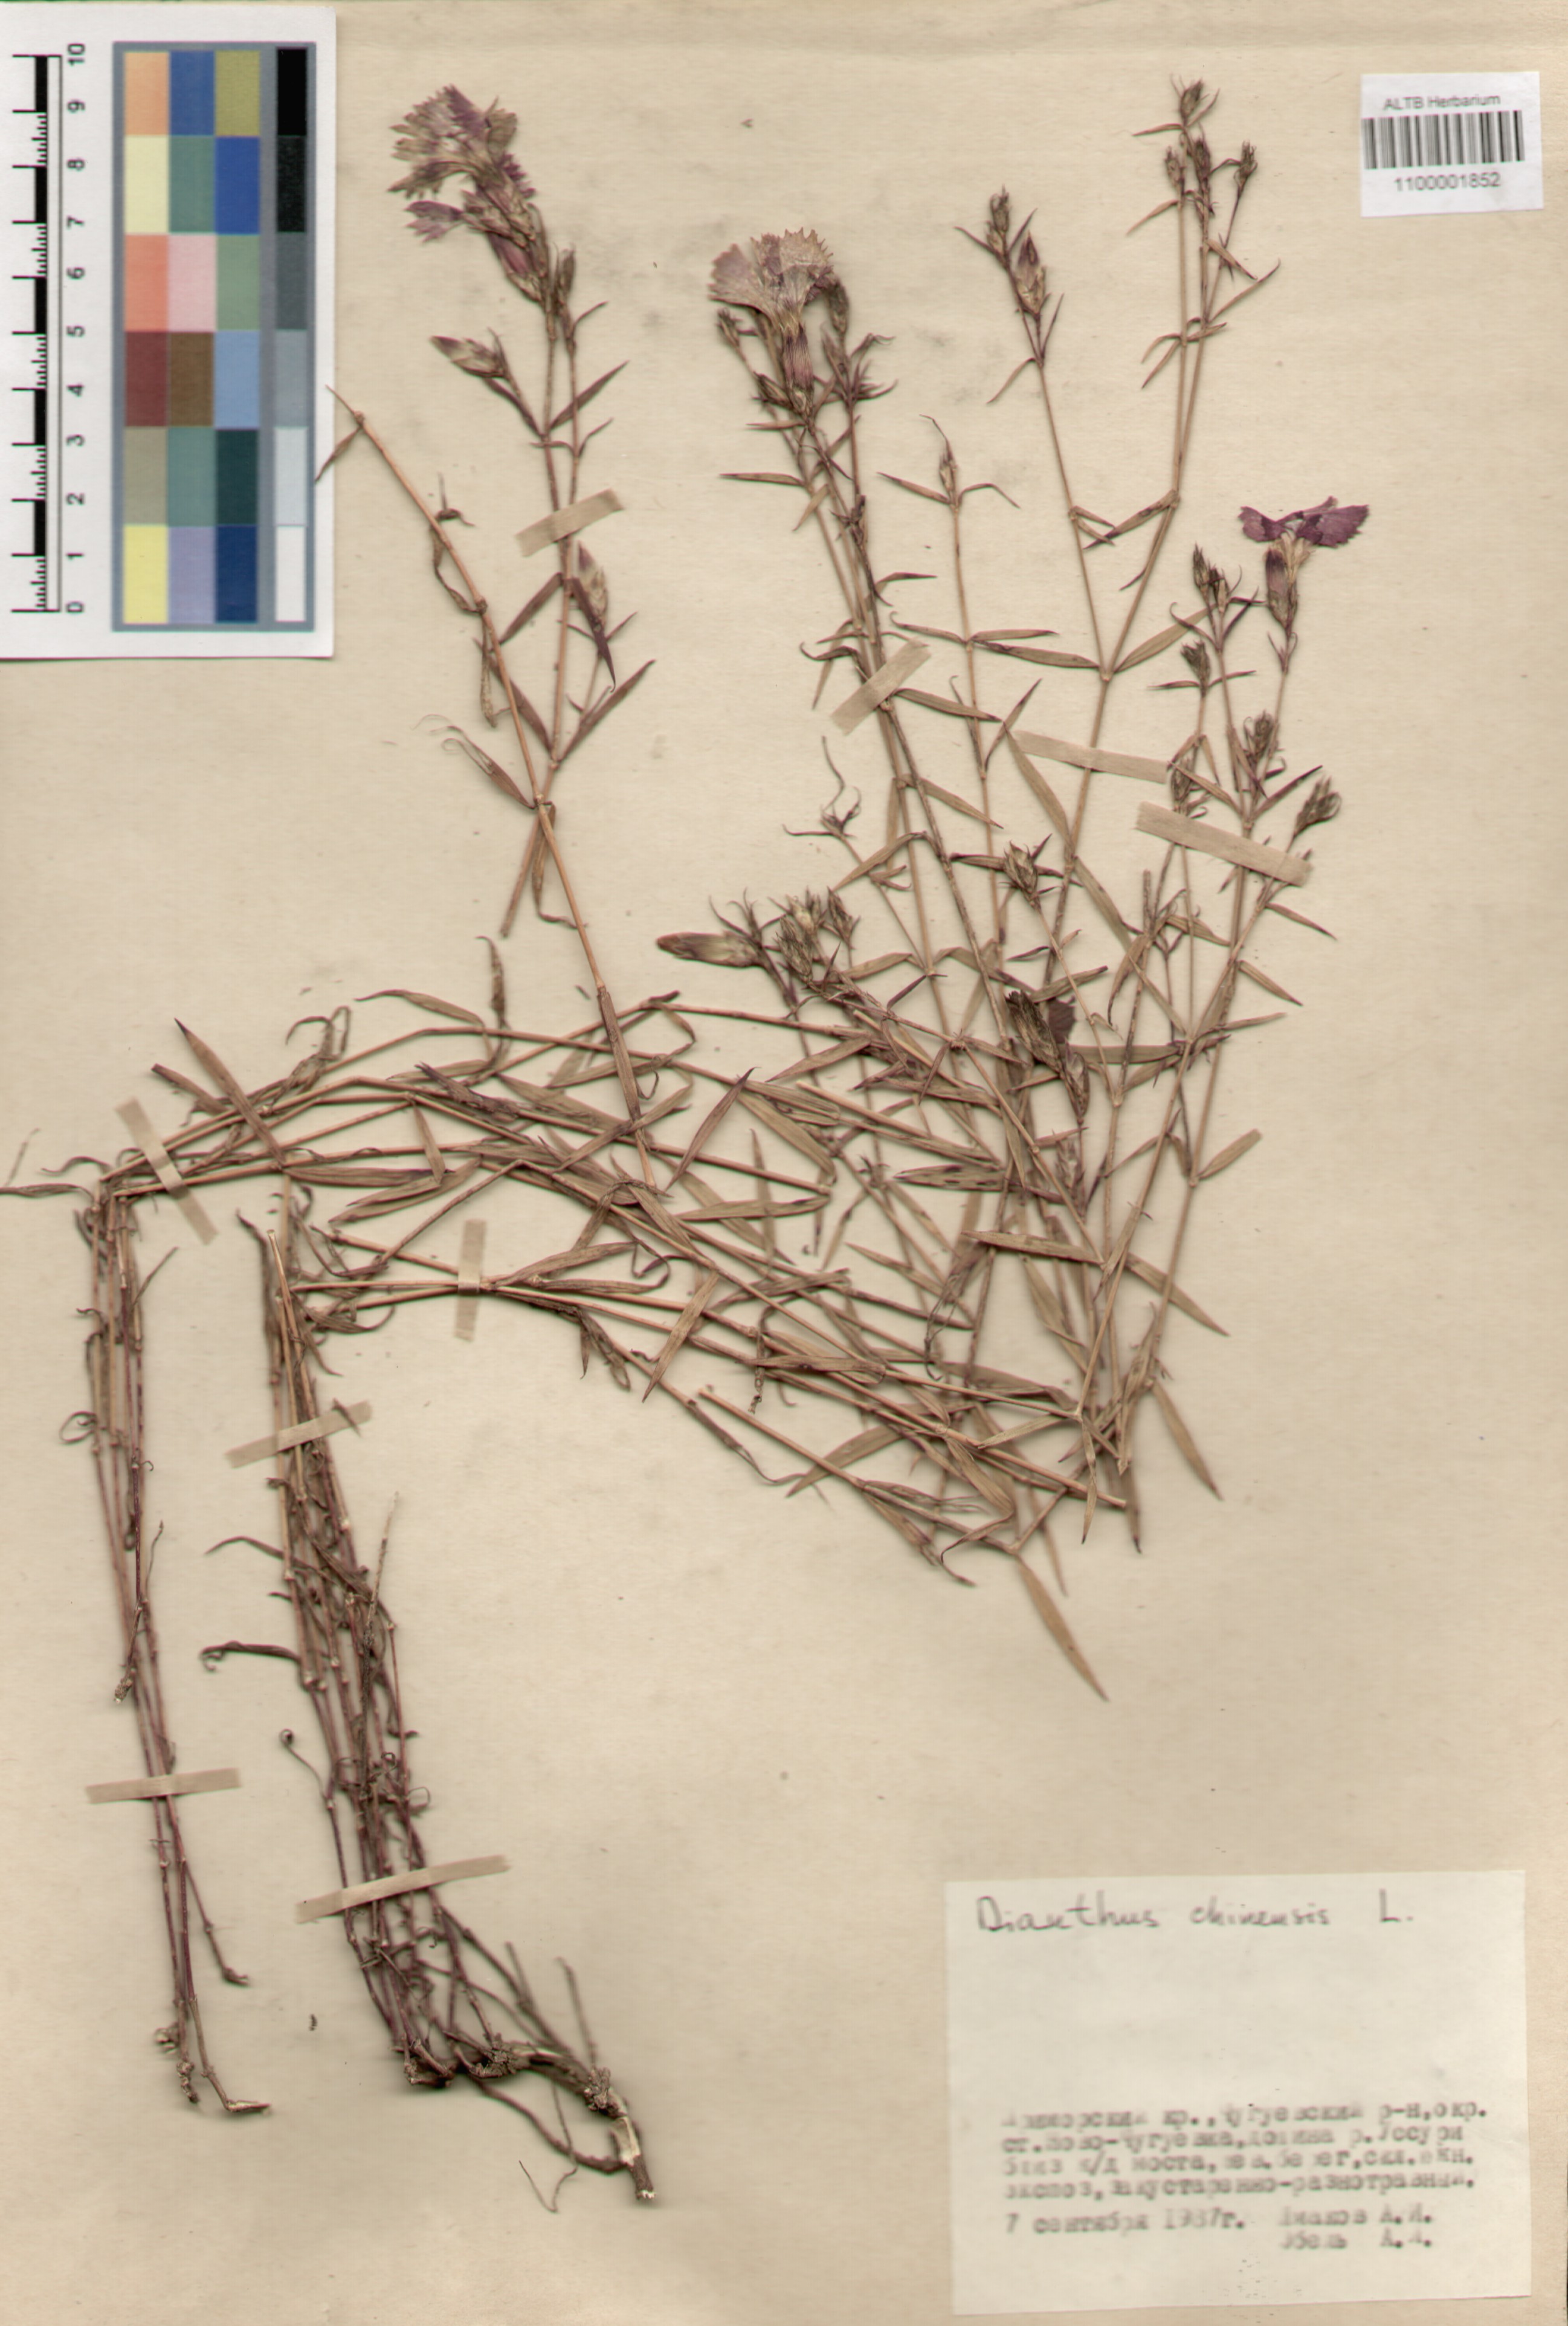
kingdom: Plantae
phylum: Tracheophyta
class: Magnoliopsida
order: Caryophyllales
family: Caryophyllaceae
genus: Dianthus
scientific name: Dianthus chinensis
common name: Rainbow pink
